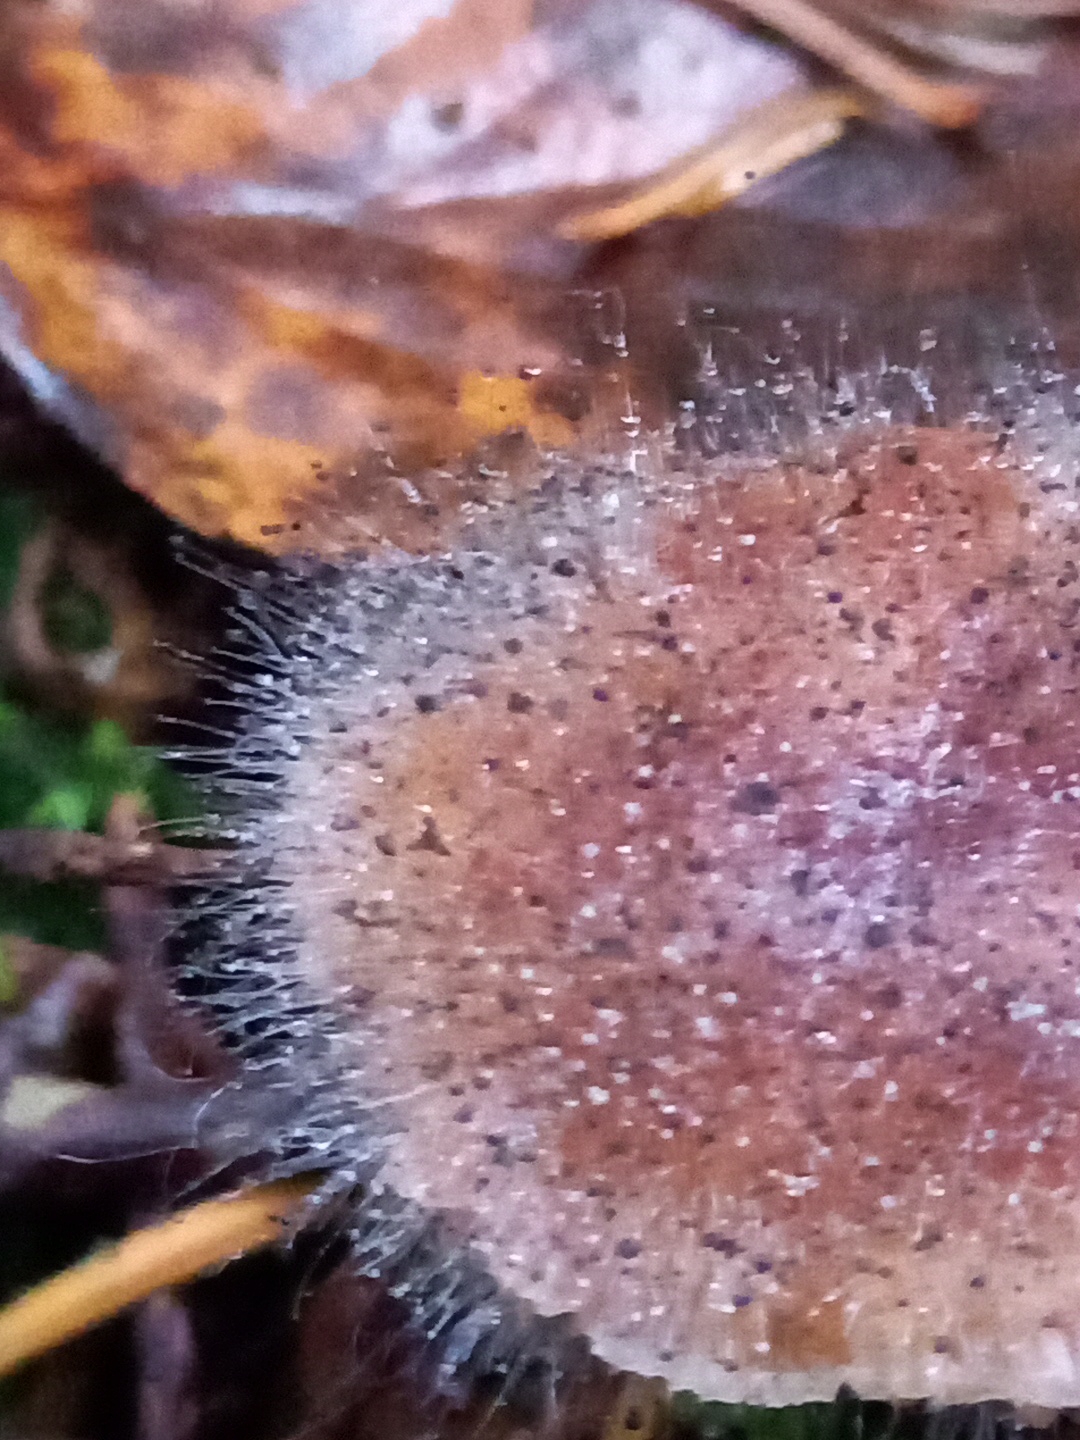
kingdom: Fungi
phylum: Mucoromycota
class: Mucoromycetes
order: Mucorales
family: Phycomycetaceae
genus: Spinellus
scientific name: Spinellus fusiger
